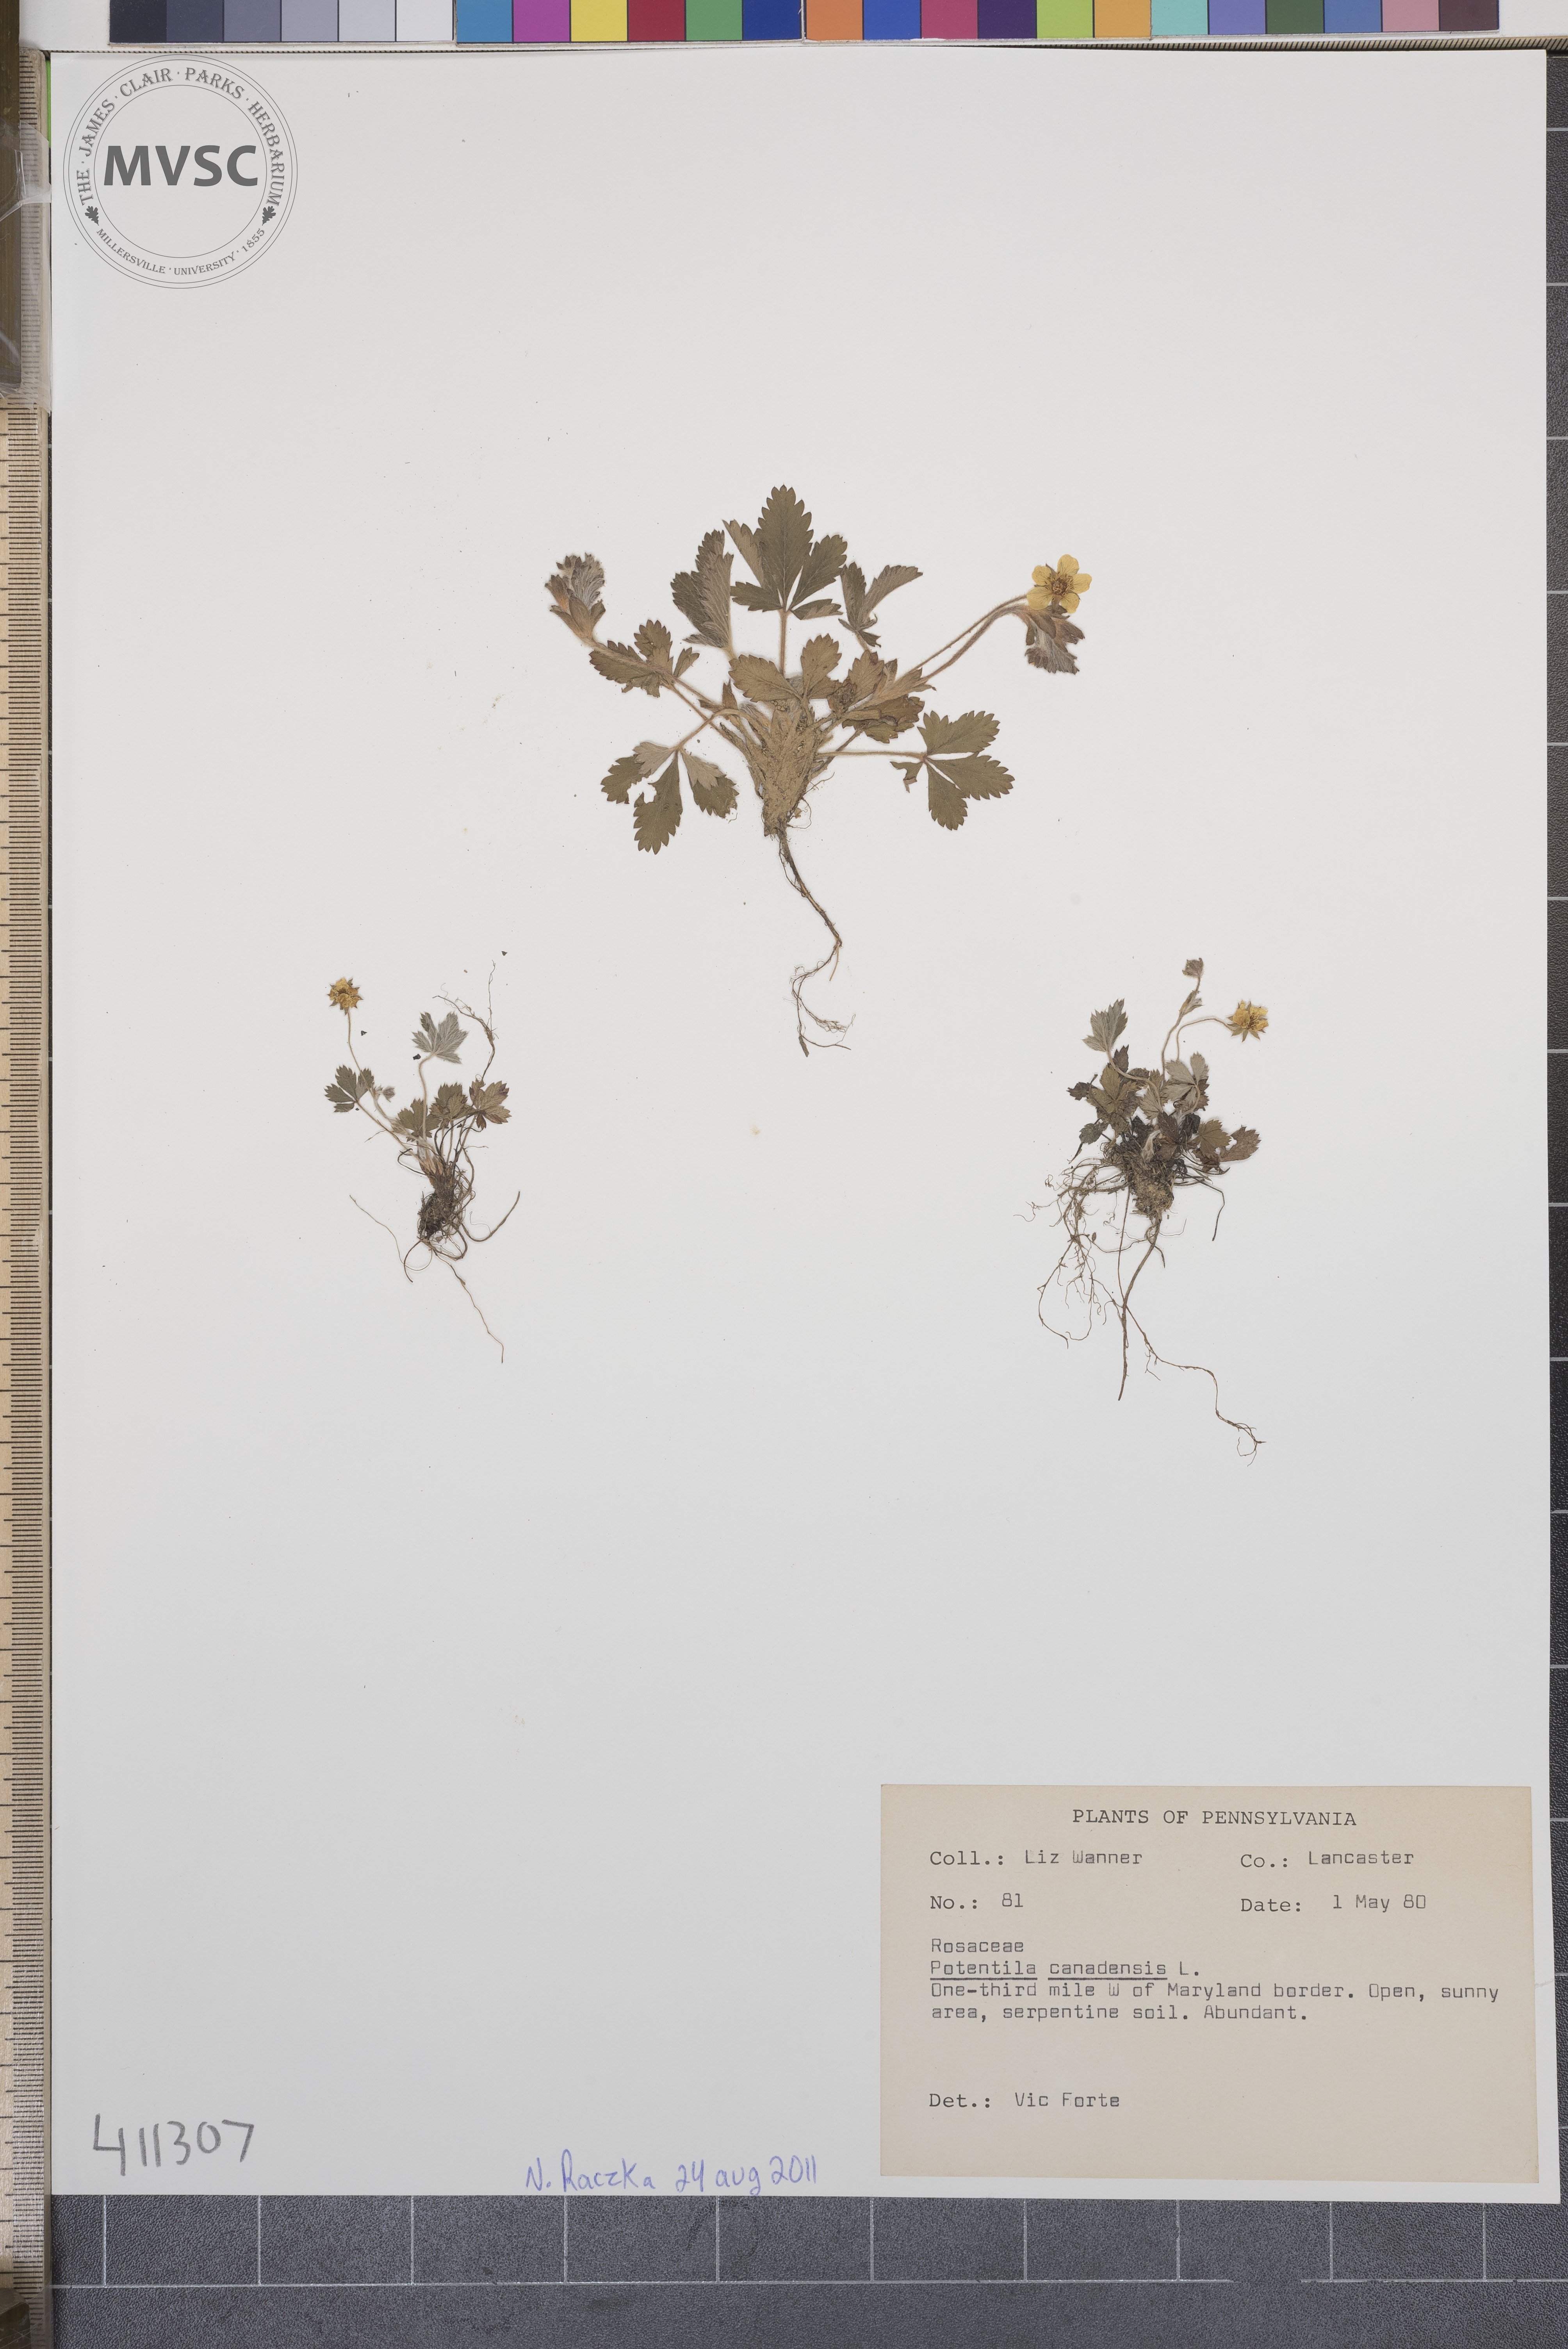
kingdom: Plantae
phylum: Tracheophyta
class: Magnoliopsida
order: Rosales
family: Rosaceae
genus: Potentilla
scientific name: Potentilla canadensis
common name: Cinquefoil
